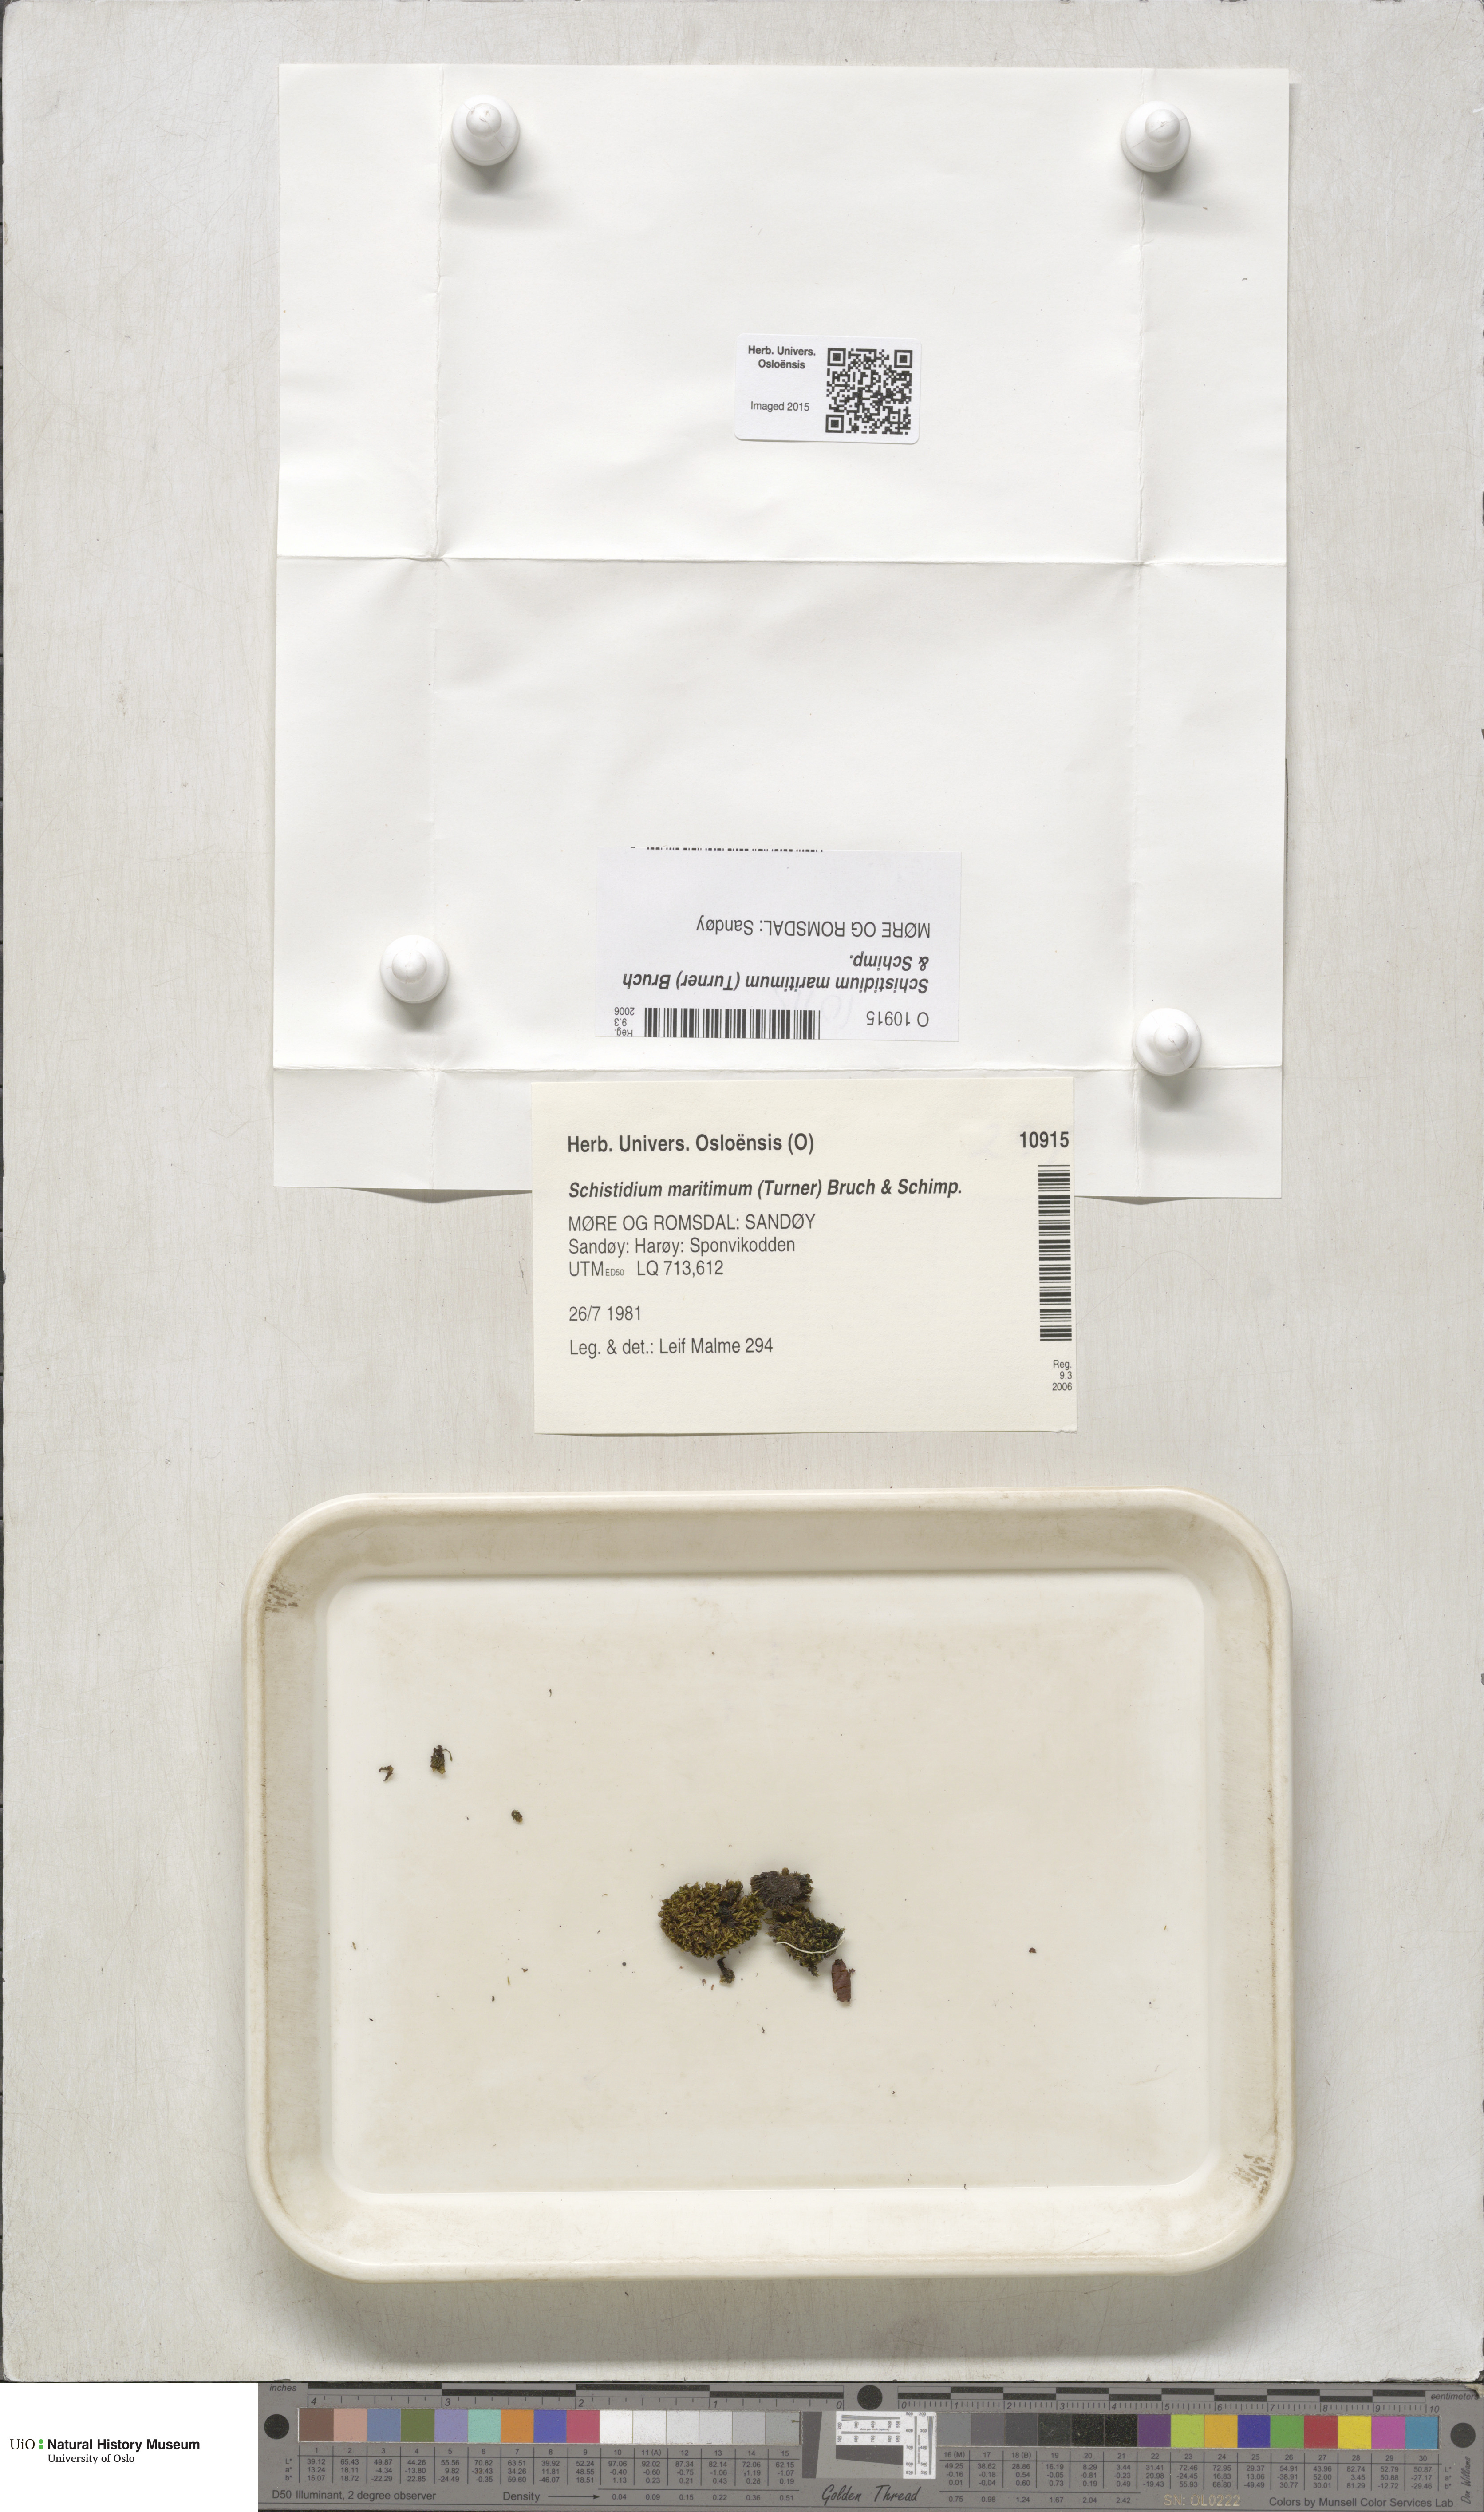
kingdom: Plantae
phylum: Bryophyta
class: Bryopsida
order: Grimmiales
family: Grimmiaceae
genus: Schistidium
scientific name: Schistidium maritimum
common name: Seaside bloom moss
